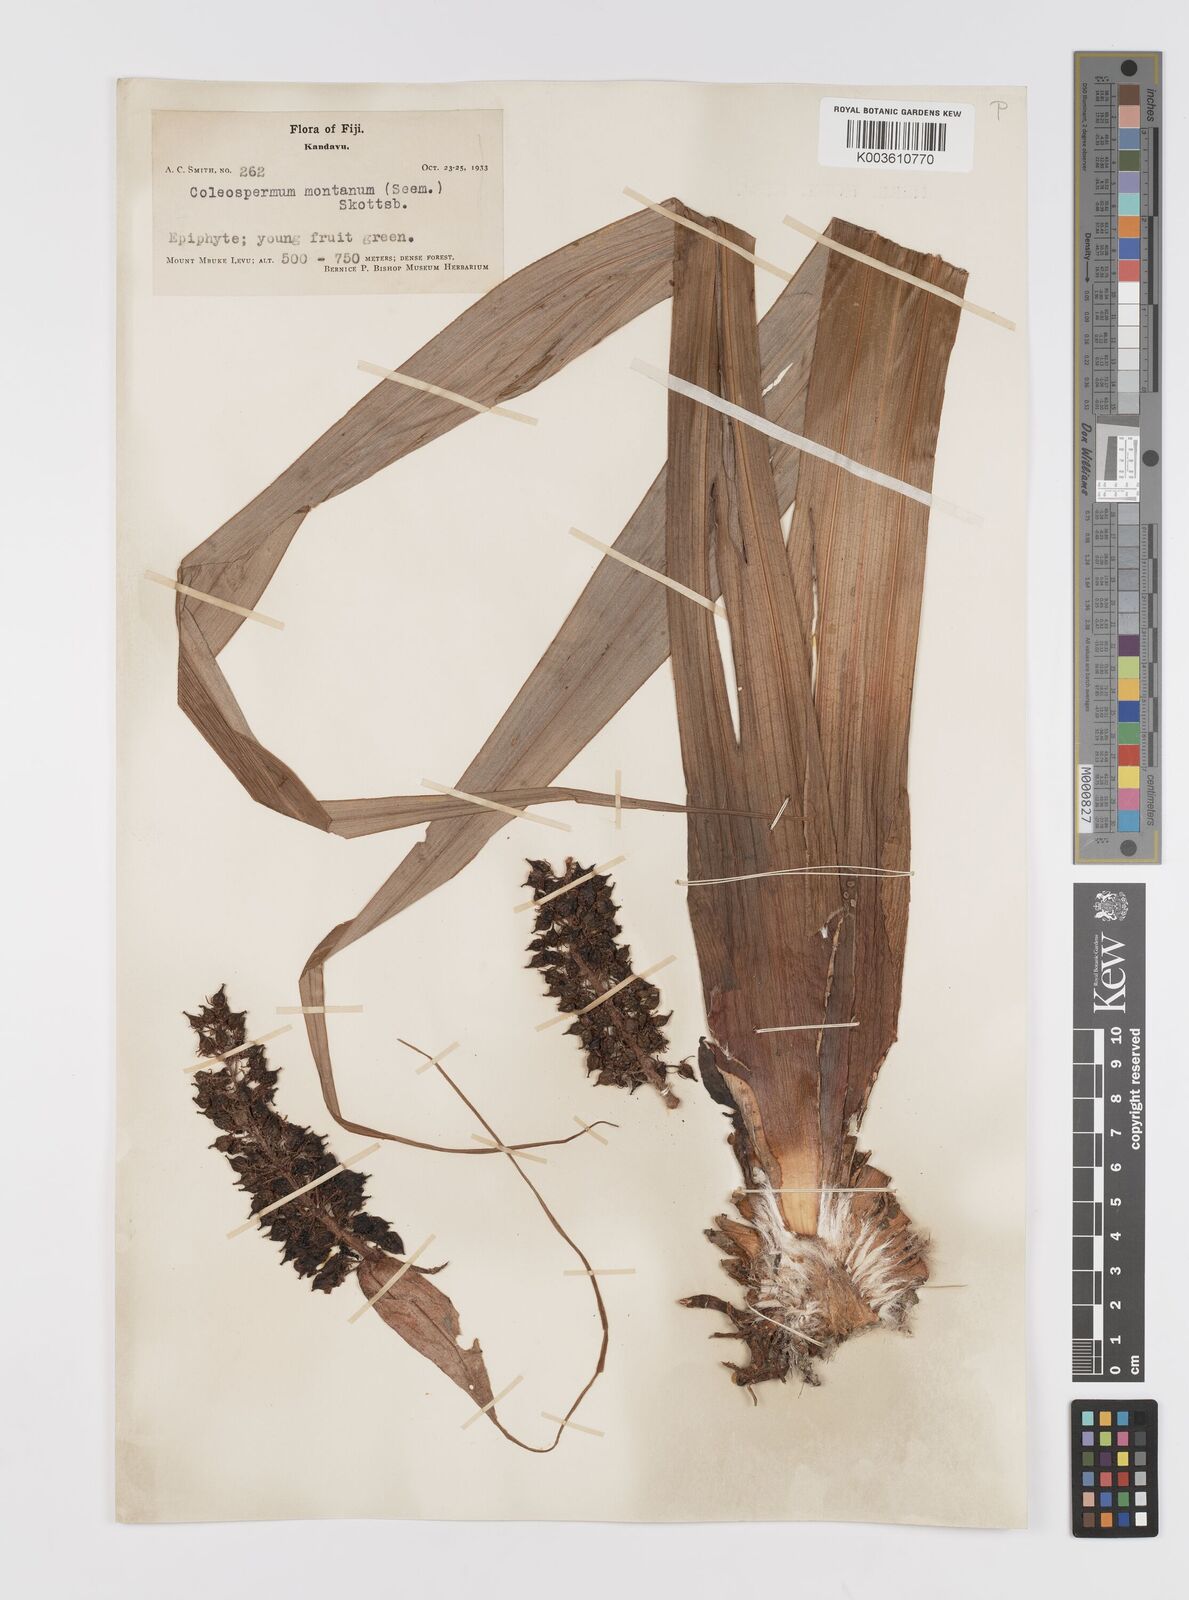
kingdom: Plantae
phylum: Tracheophyta
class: Liliopsida
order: Asparagales
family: Asteliaceae
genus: Astelia
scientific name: Astelia montana
